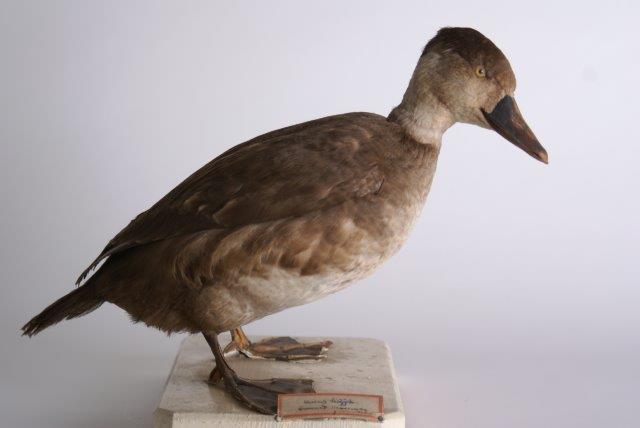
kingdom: Animalia
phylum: Chordata
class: Aves
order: Anseriformes
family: Anatidae
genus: Melanitta
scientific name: Melanitta nigra
